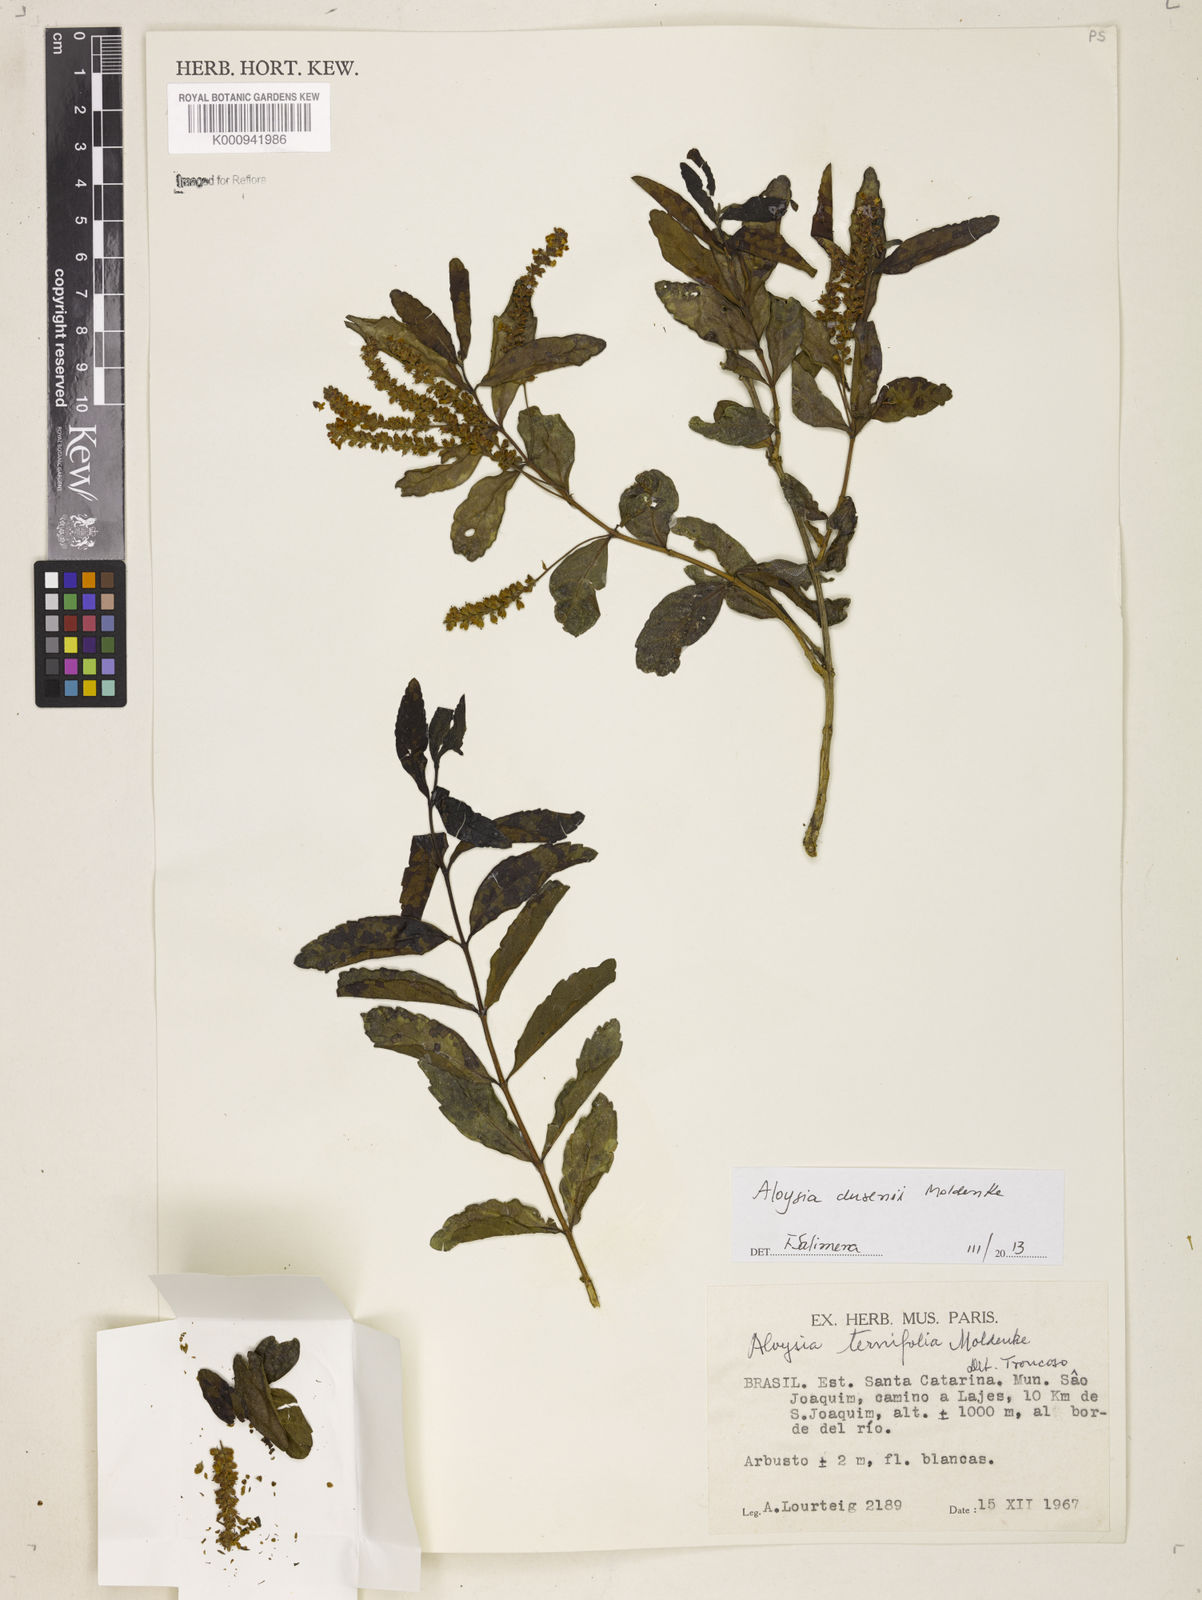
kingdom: Plantae
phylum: Tracheophyta
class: Magnoliopsida
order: Lamiales
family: Verbenaceae
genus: Aloysia
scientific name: Aloysia dusenii
